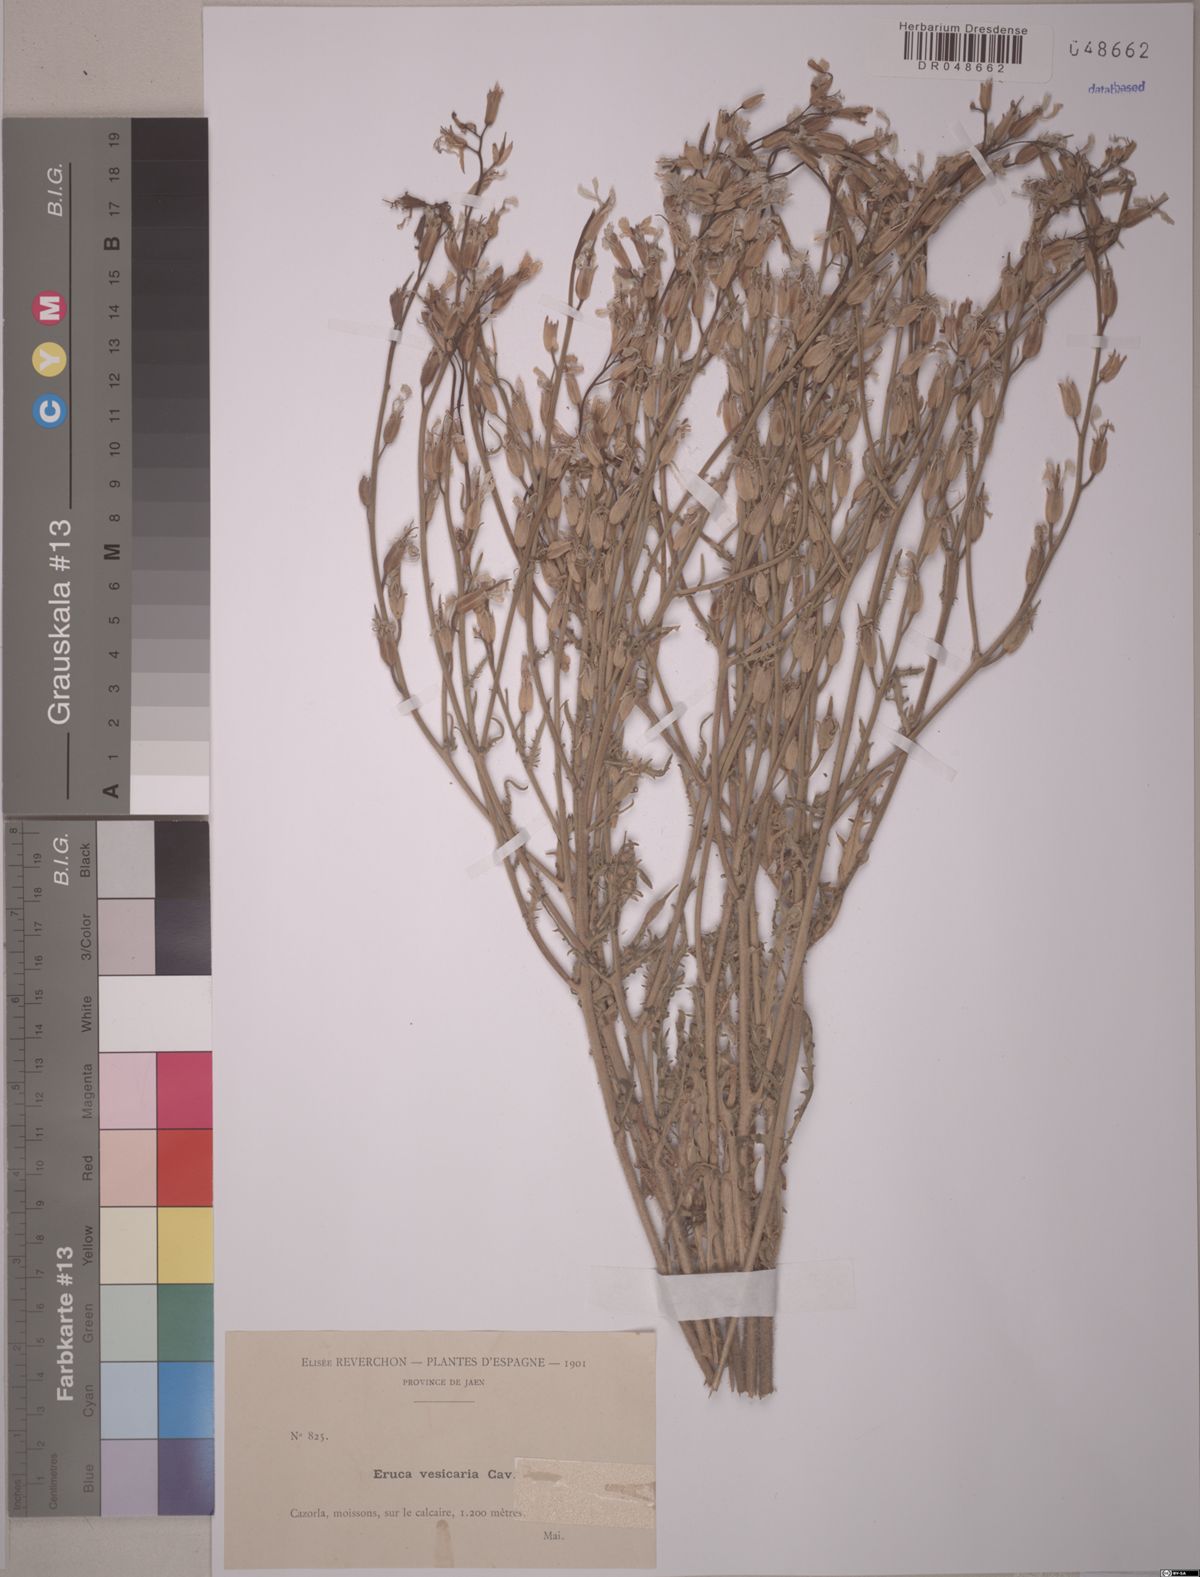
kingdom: Plantae
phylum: Tracheophyta
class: Magnoliopsida
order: Brassicales
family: Brassicaceae
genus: Eruca
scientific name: Eruca vesicaria
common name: Garden rocket
